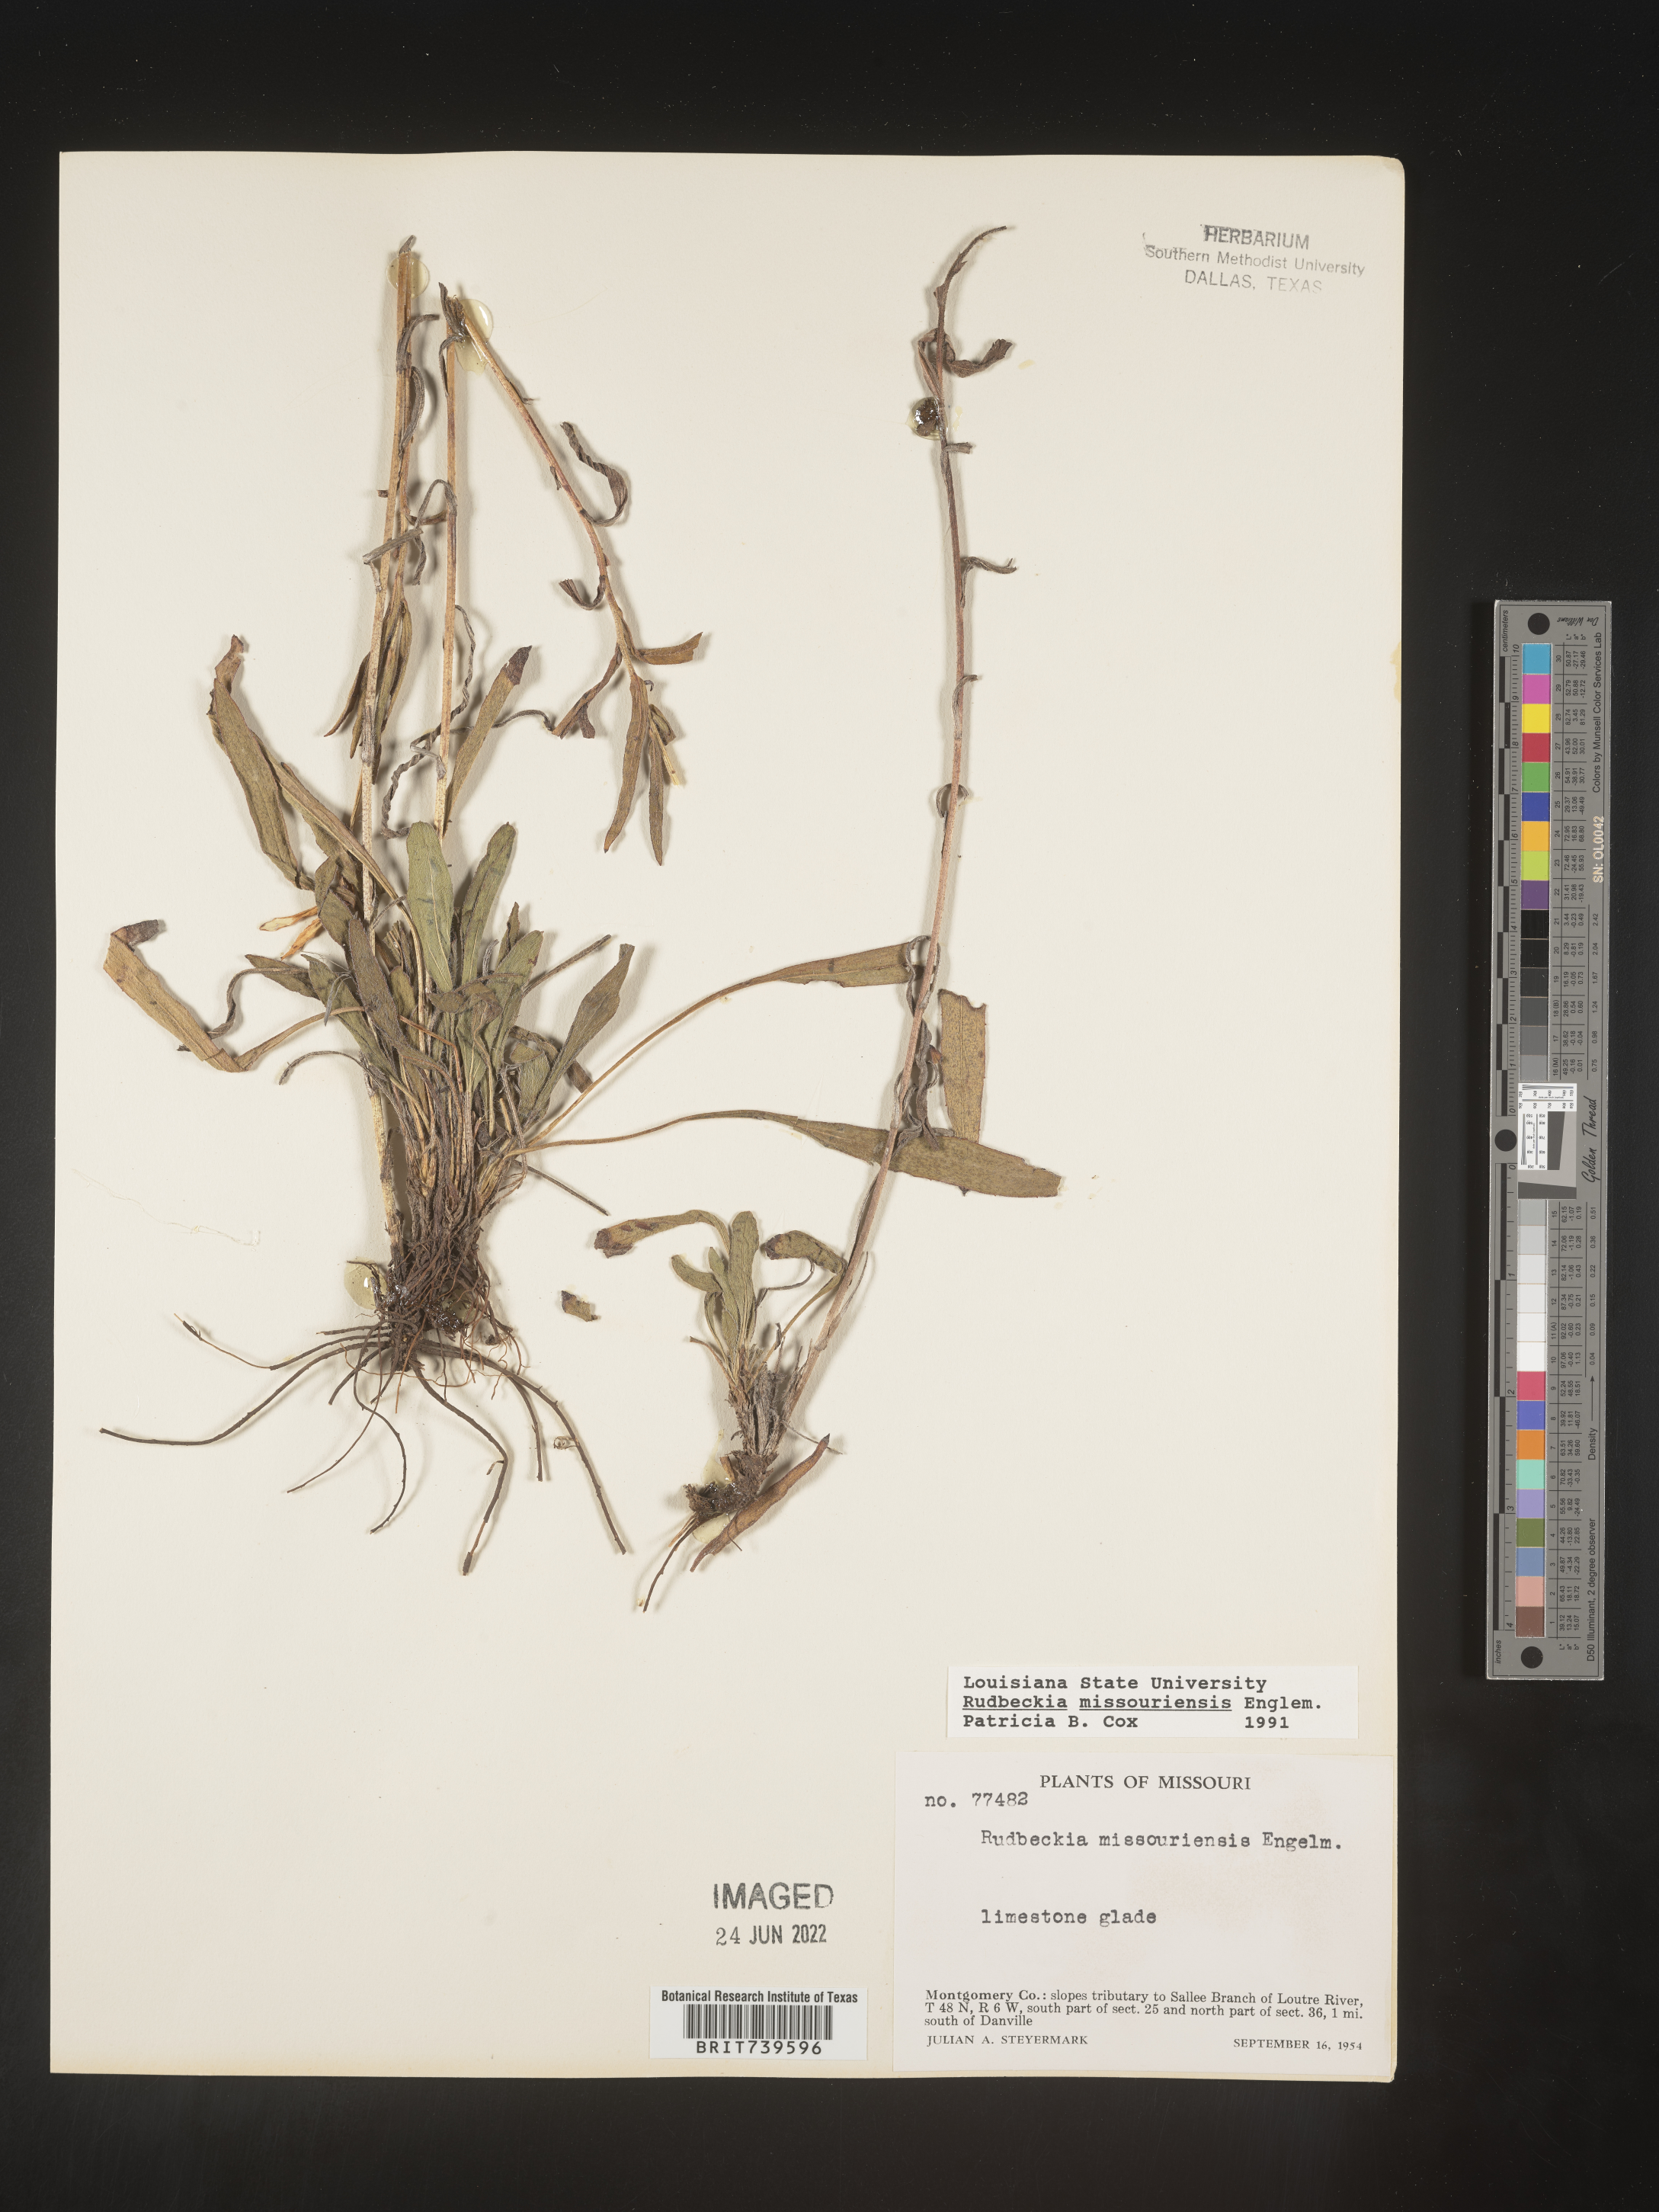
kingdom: Plantae
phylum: Tracheophyta
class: Magnoliopsida
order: Asterales
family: Asteraceae
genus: Rudbeckia
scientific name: Rudbeckia missouriensis
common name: Missouri coneflower
